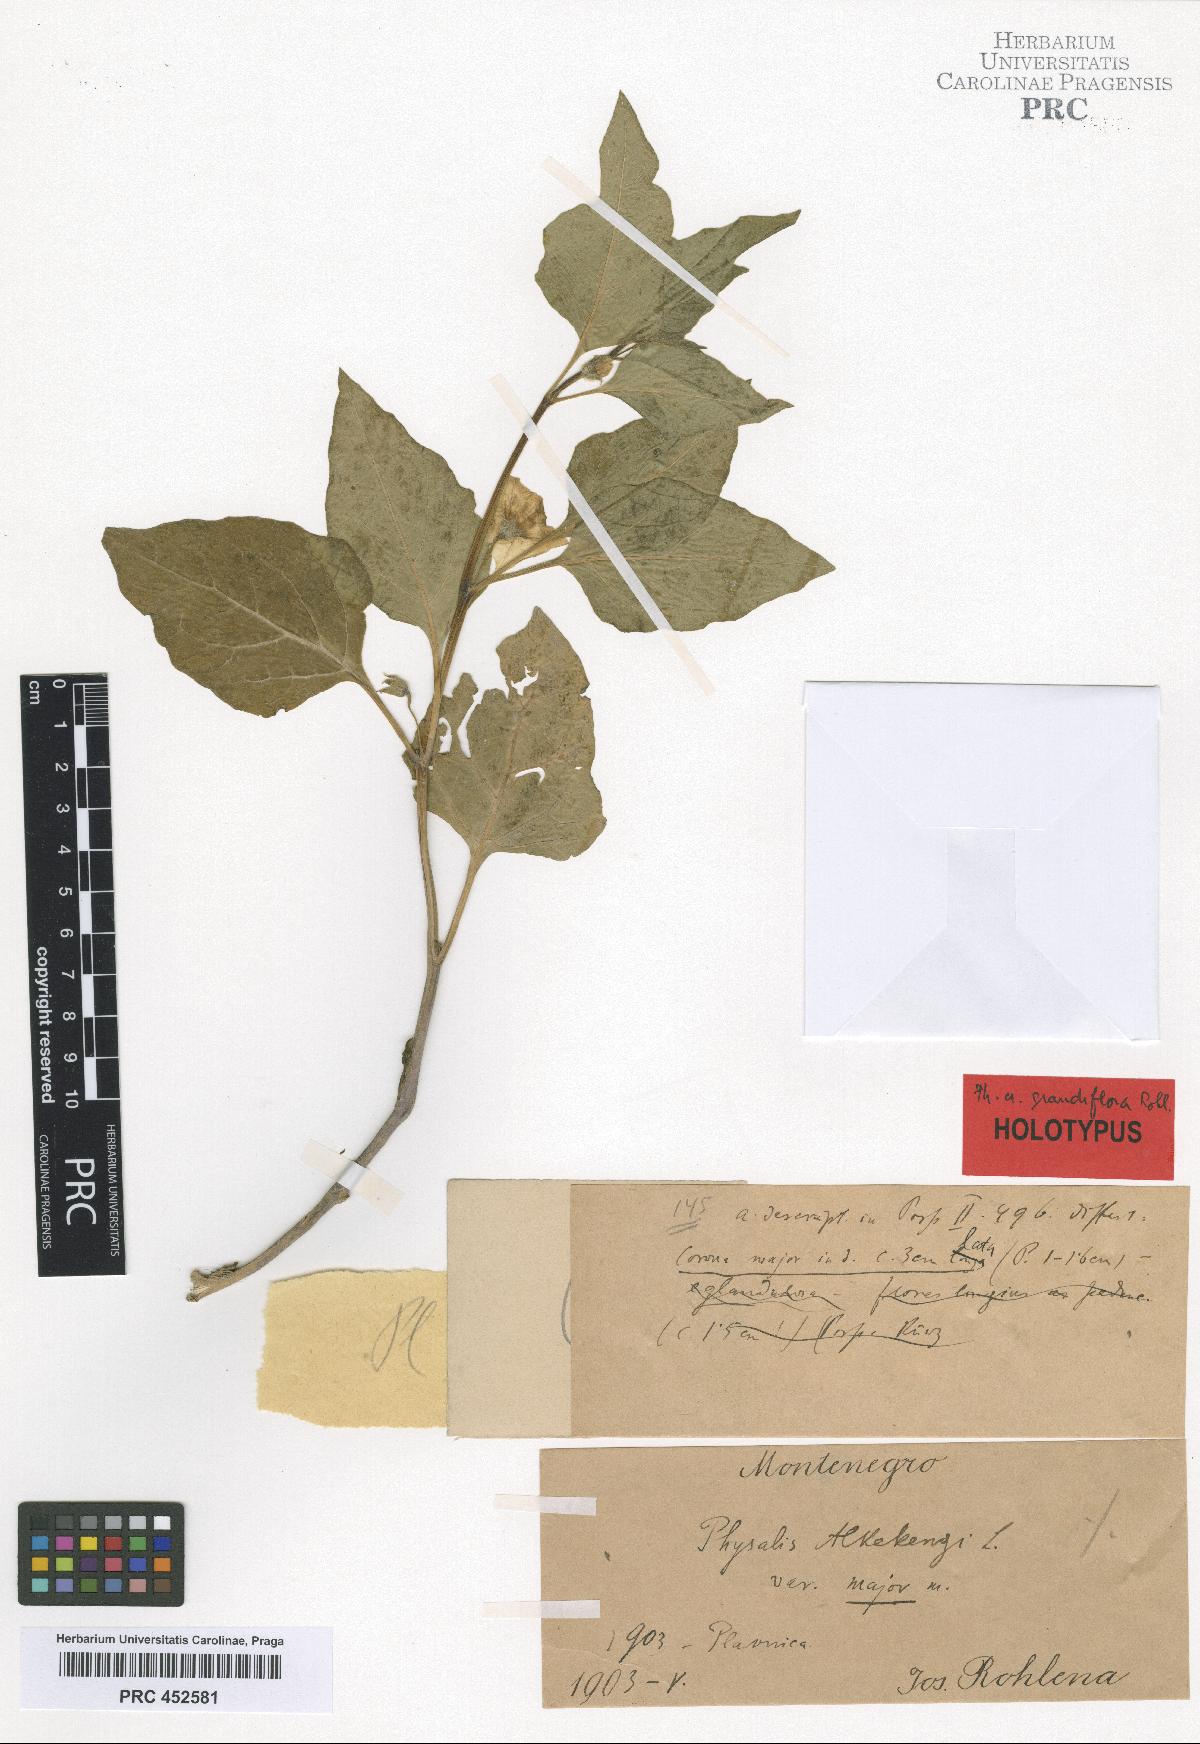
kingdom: Plantae
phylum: Tracheophyta
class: Magnoliopsida
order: Solanales
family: Solanaceae
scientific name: Solanaceae
